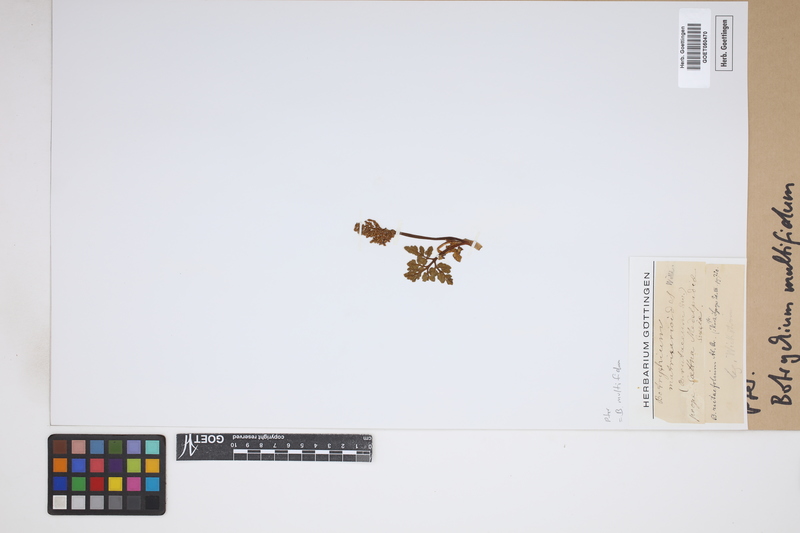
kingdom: Plantae
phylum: Tracheophyta
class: Polypodiopsida
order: Ophioglossales
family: Ophioglossaceae
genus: Sceptridium
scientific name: Sceptridium multifidum
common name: Leathery grape fern
